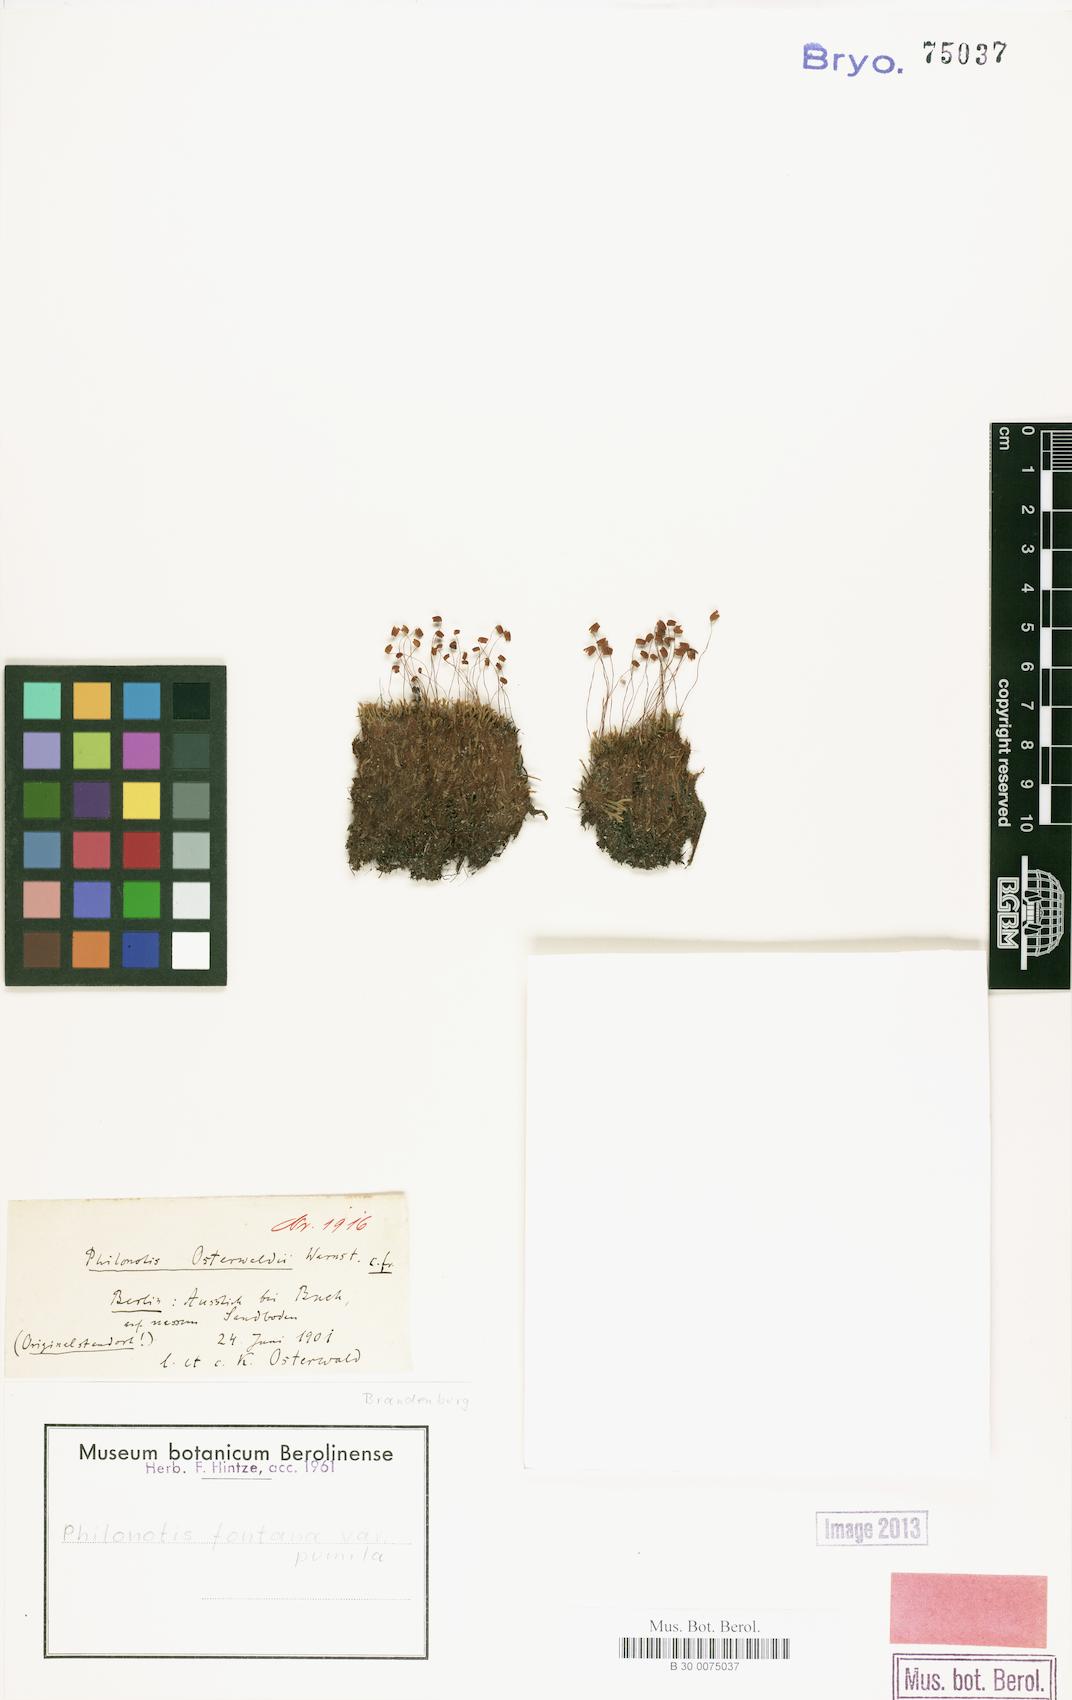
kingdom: Plantae
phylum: Bryophyta
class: Bryopsida
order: Bartramiales
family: Bartramiaceae
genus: Philonotis
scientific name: Philonotis tomentella
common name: Woolly apple moss
